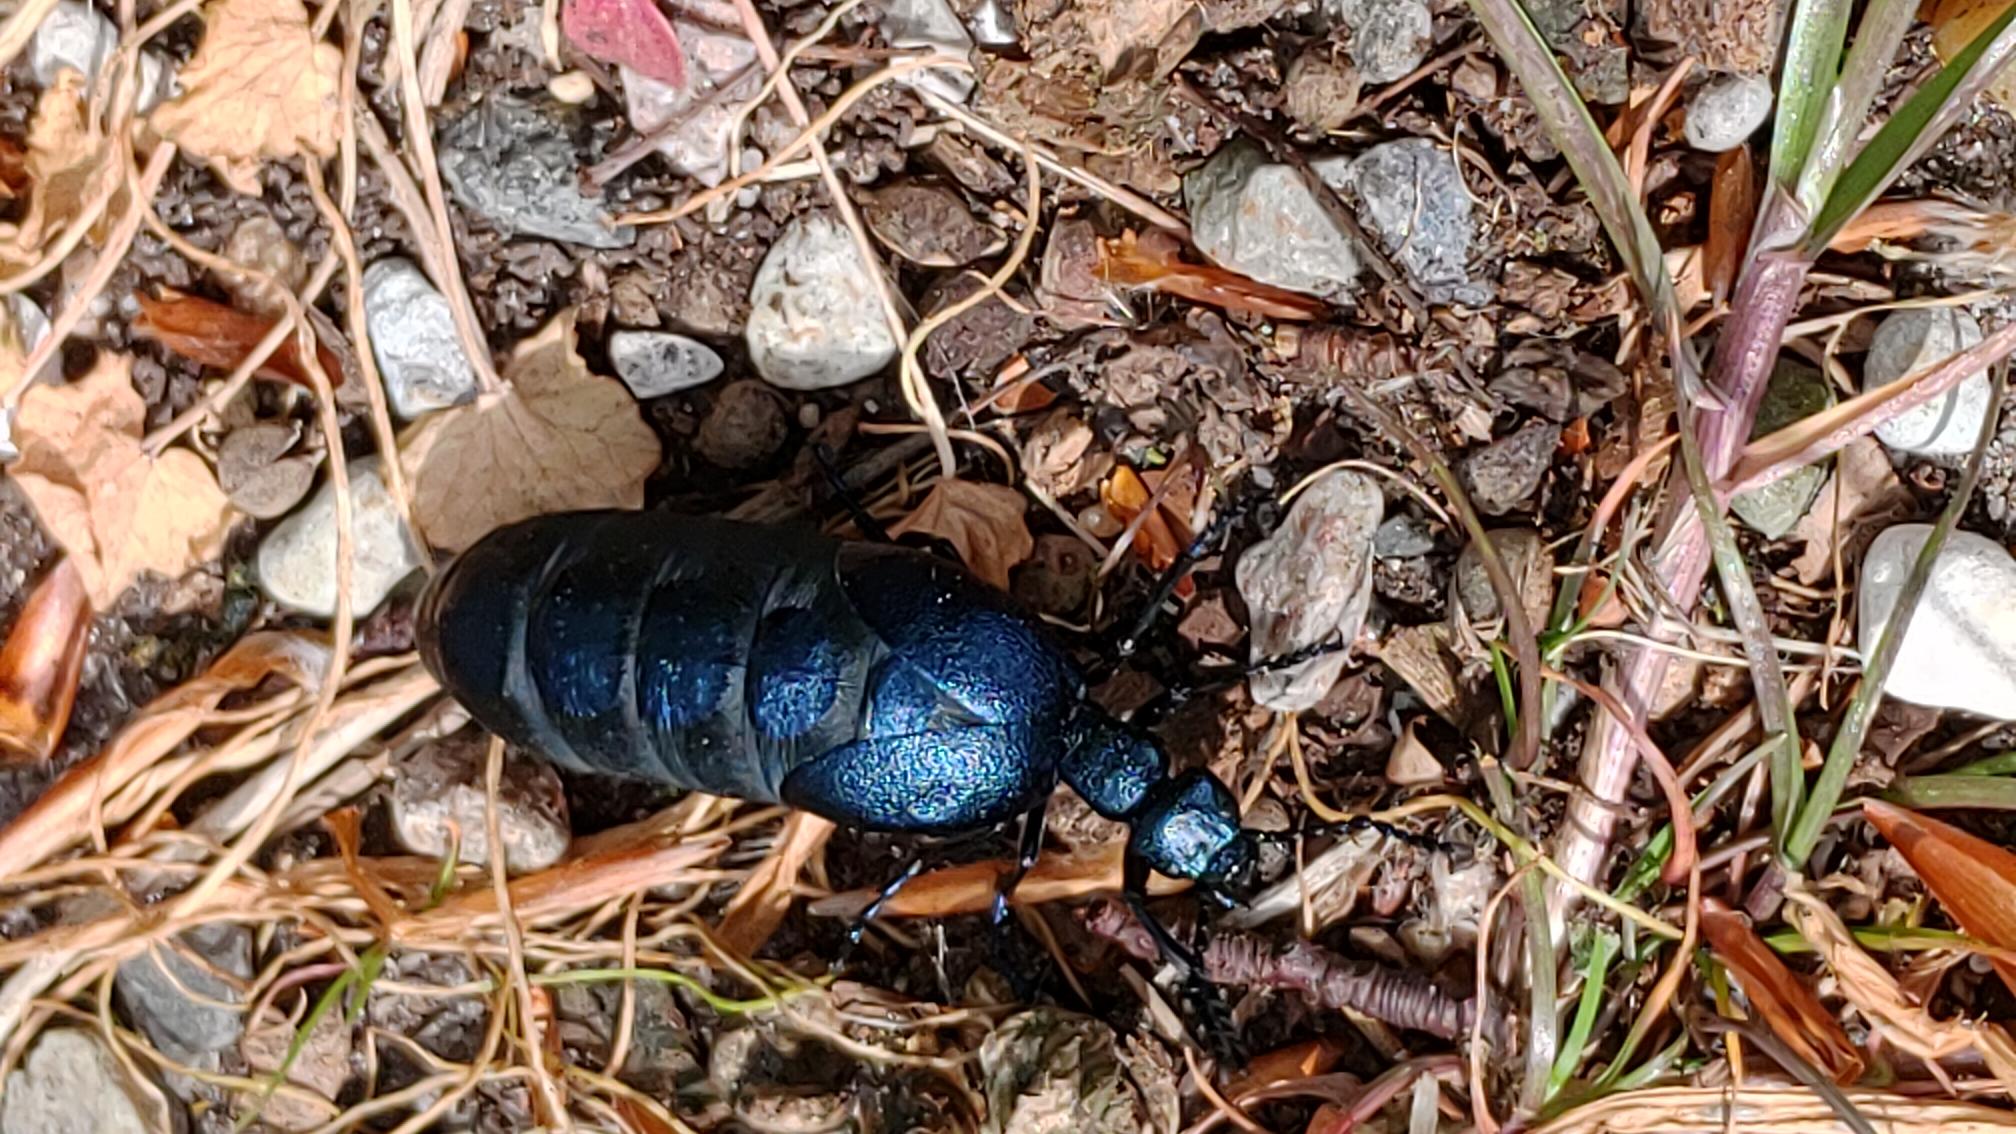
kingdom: Animalia
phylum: Arthropoda
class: Insecta
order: Coleoptera
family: Meloidae
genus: Meloe
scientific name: Meloe violaceus
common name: Blå oliebille
